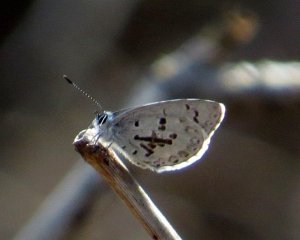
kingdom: Animalia
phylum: Arthropoda
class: Insecta
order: Lepidoptera
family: Lycaenidae
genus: Celastrina
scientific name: Celastrina
